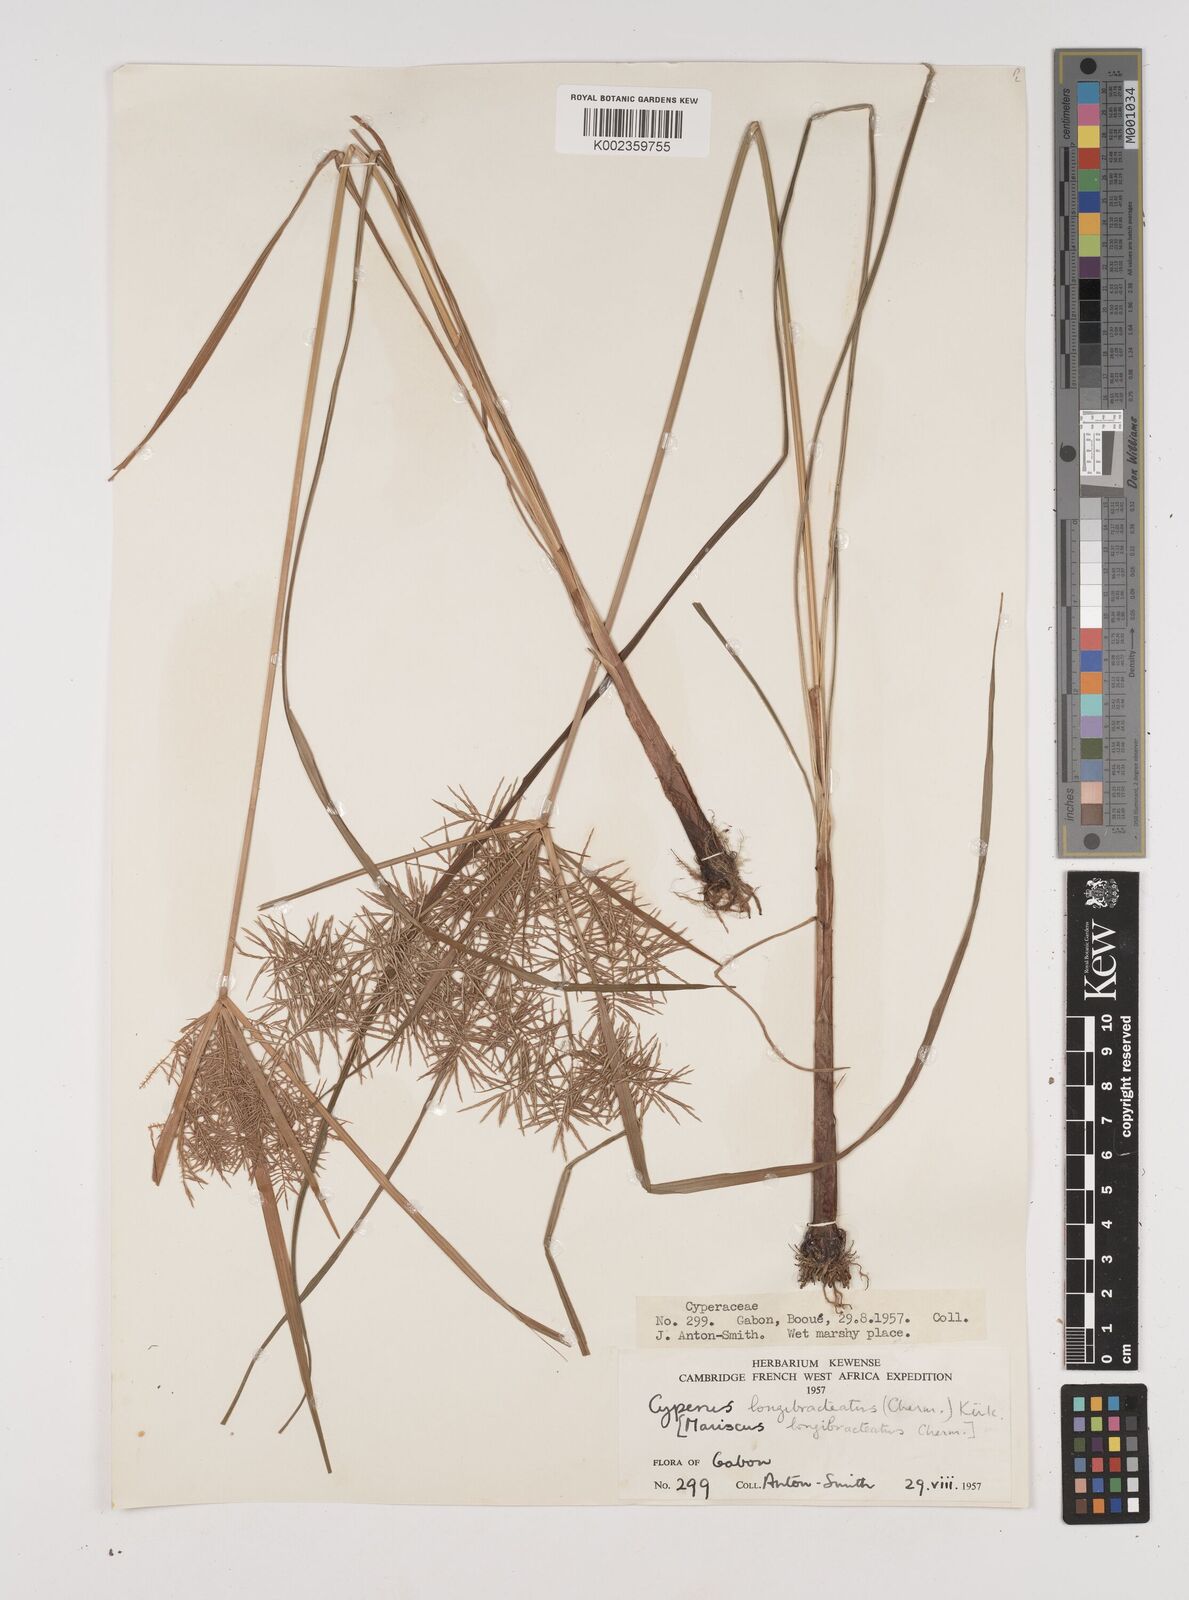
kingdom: Plantae
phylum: Tracheophyta
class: Liliopsida
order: Poales
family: Cyperaceae
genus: Cyperus
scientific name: Cyperus distans
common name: Slender cyperus
